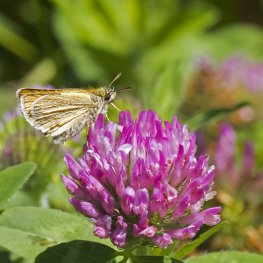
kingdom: Animalia
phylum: Arthropoda
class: Insecta
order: Lepidoptera
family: Hesperiidae
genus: Thymelicus
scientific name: Thymelicus lineola
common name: European Skipper
